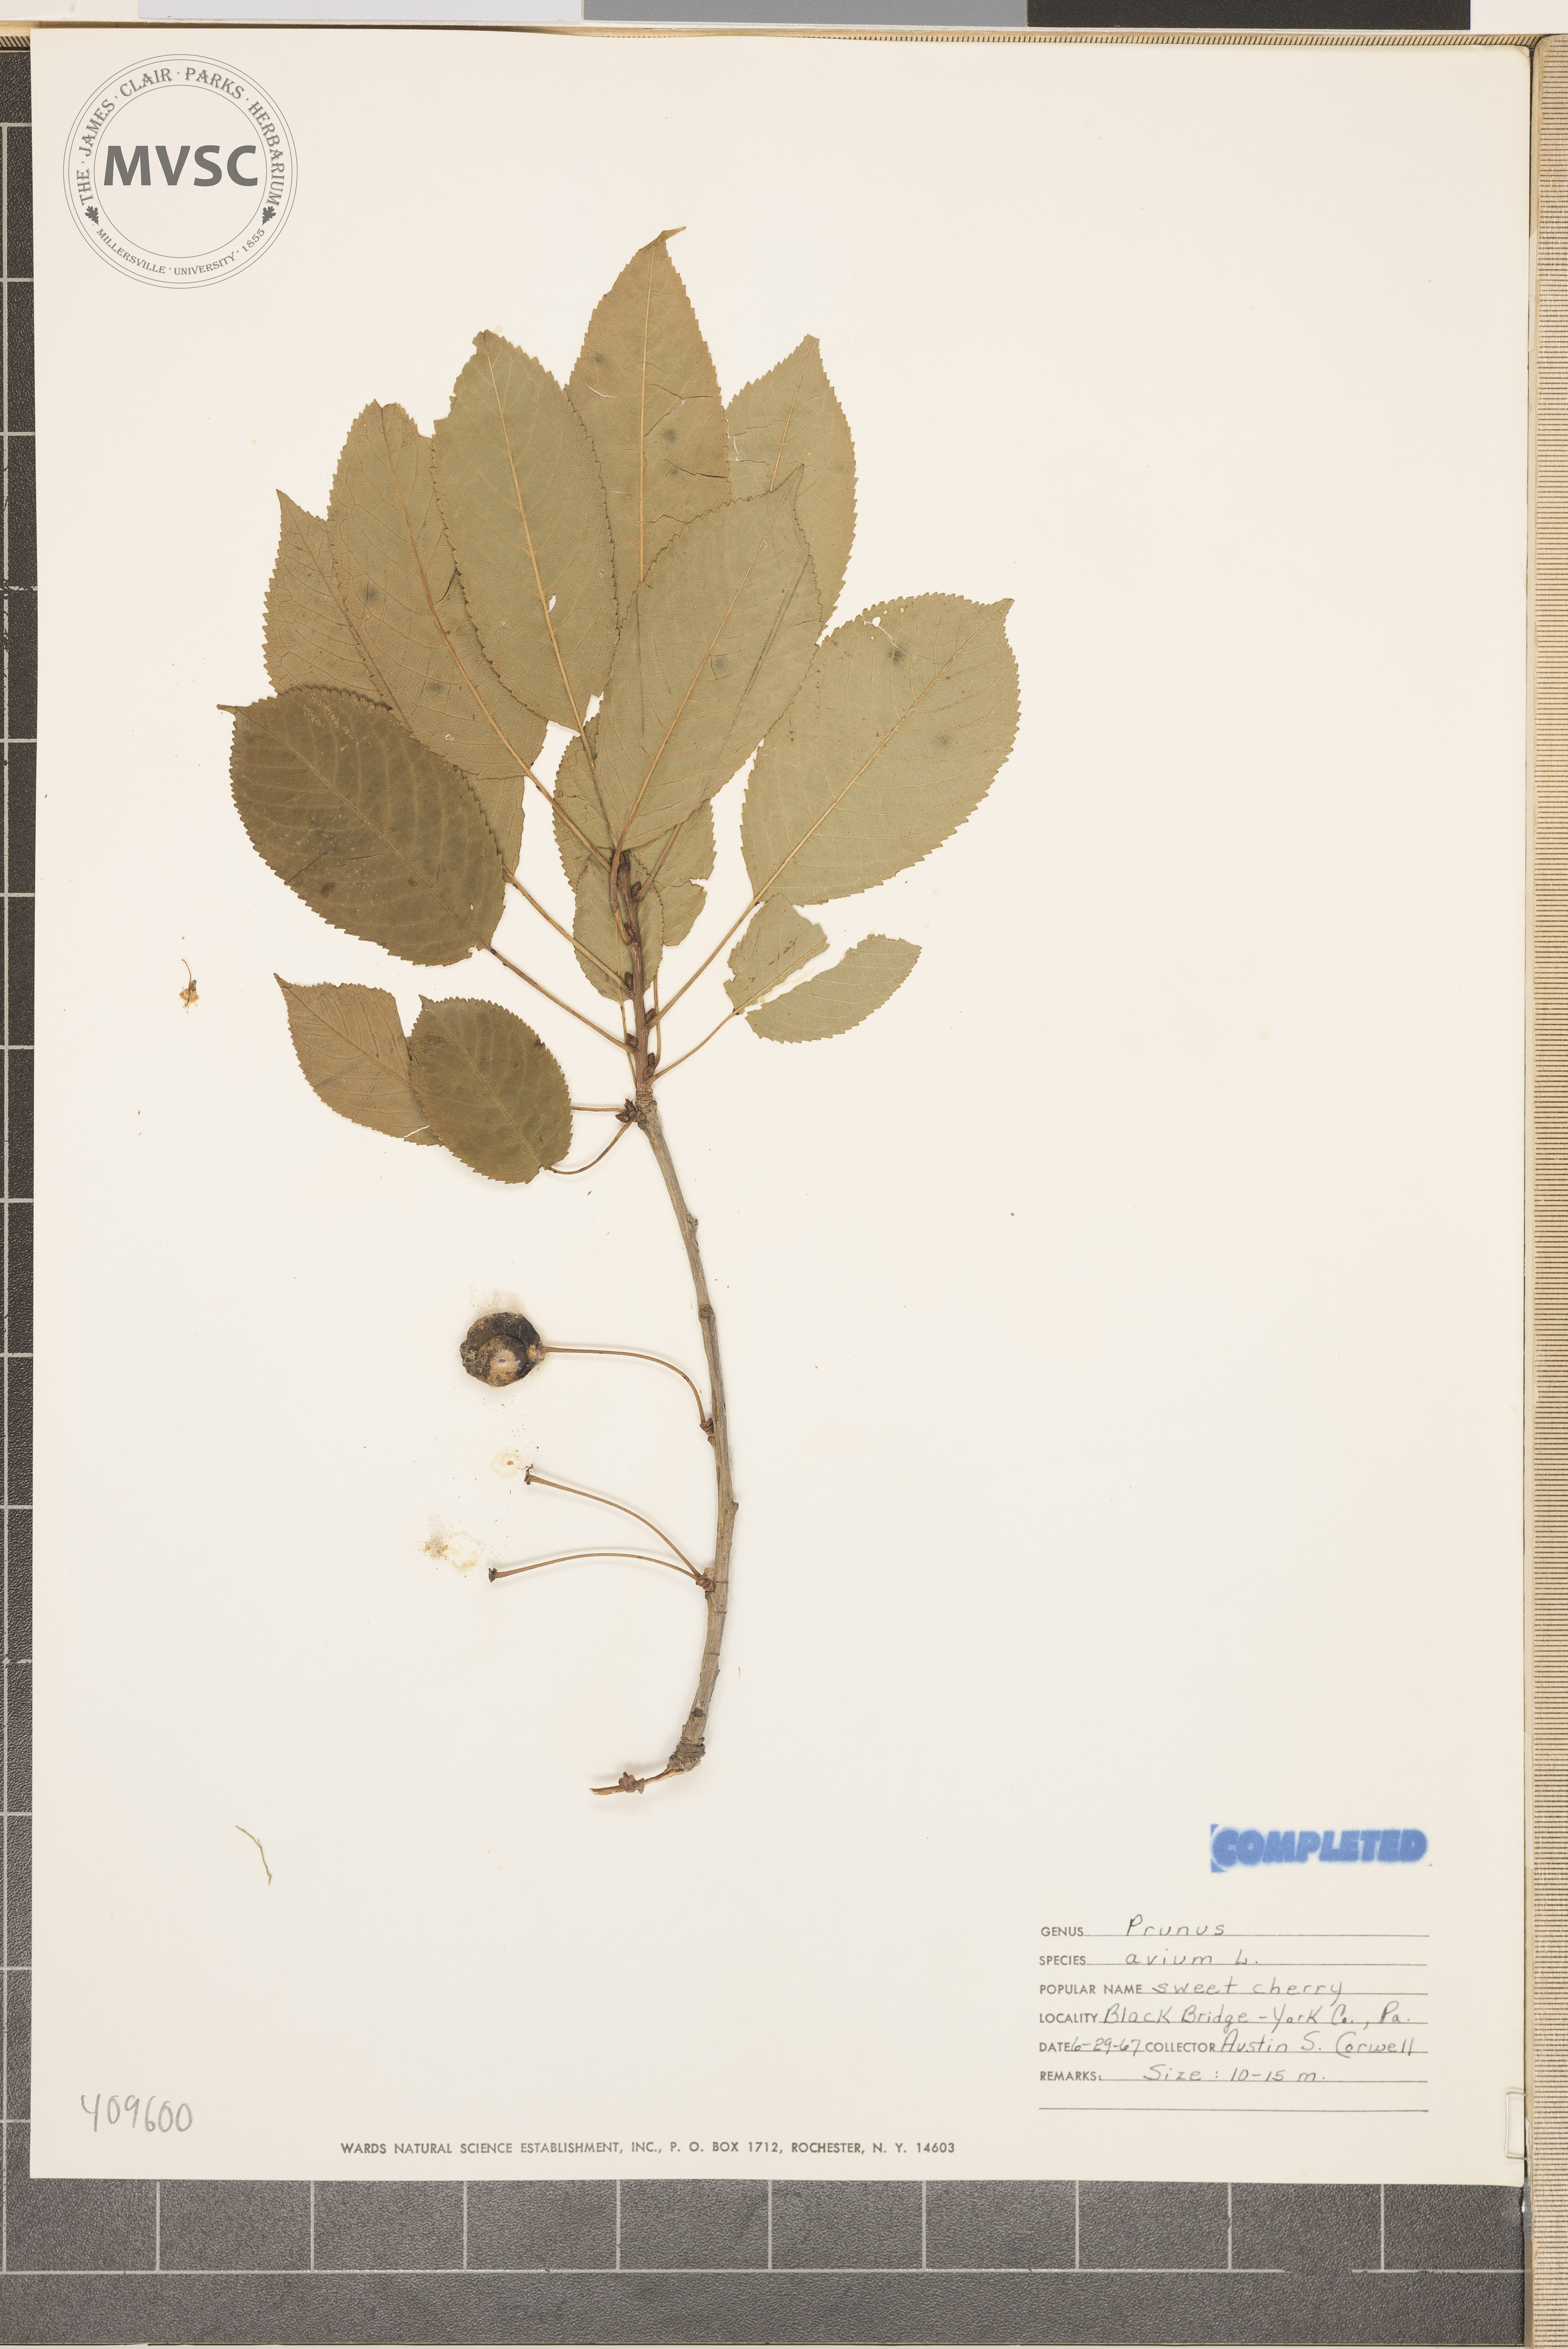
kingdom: Plantae
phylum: Tracheophyta
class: Magnoliopsida
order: Rosales
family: Rosaceae
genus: Prunus
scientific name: Prunus avium
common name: Sweet cherry
